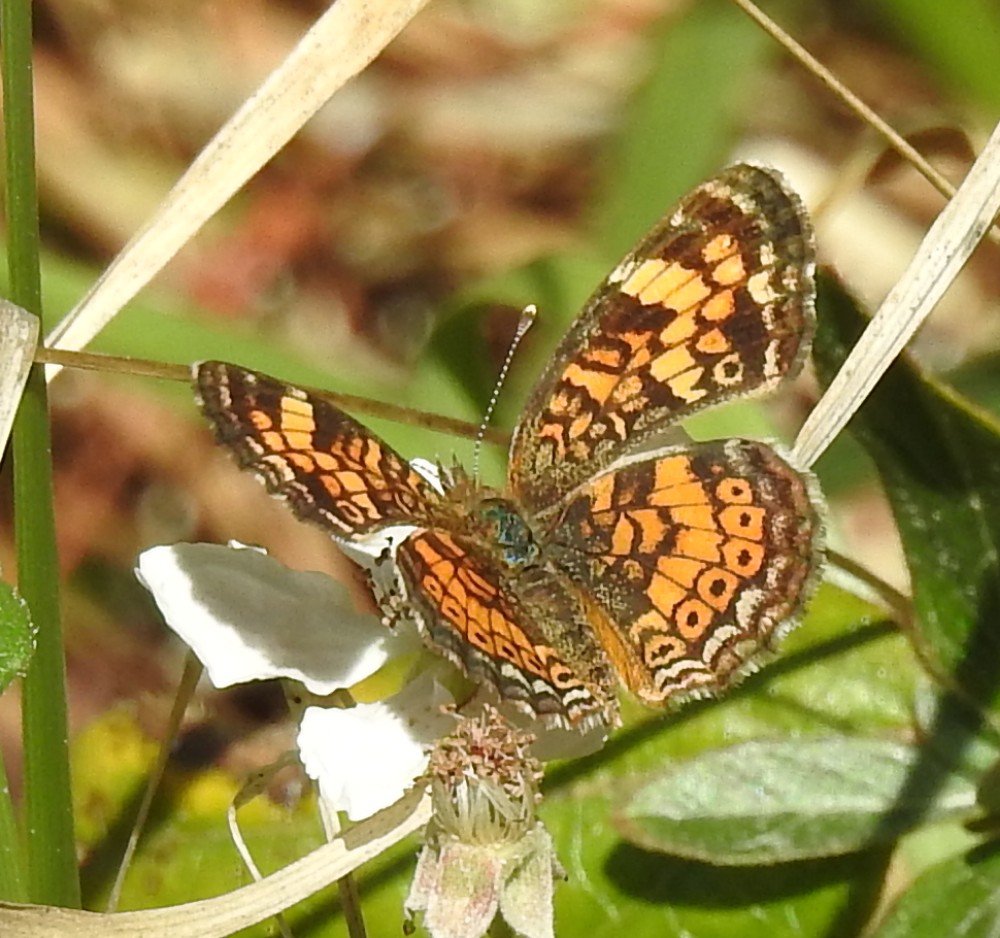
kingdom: Animalia
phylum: Arthropoda
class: Insecta
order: Lepidoptera
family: Nymphalidae
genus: Phyciodes
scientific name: Phyciodes tharos
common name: Pearl Crescent
